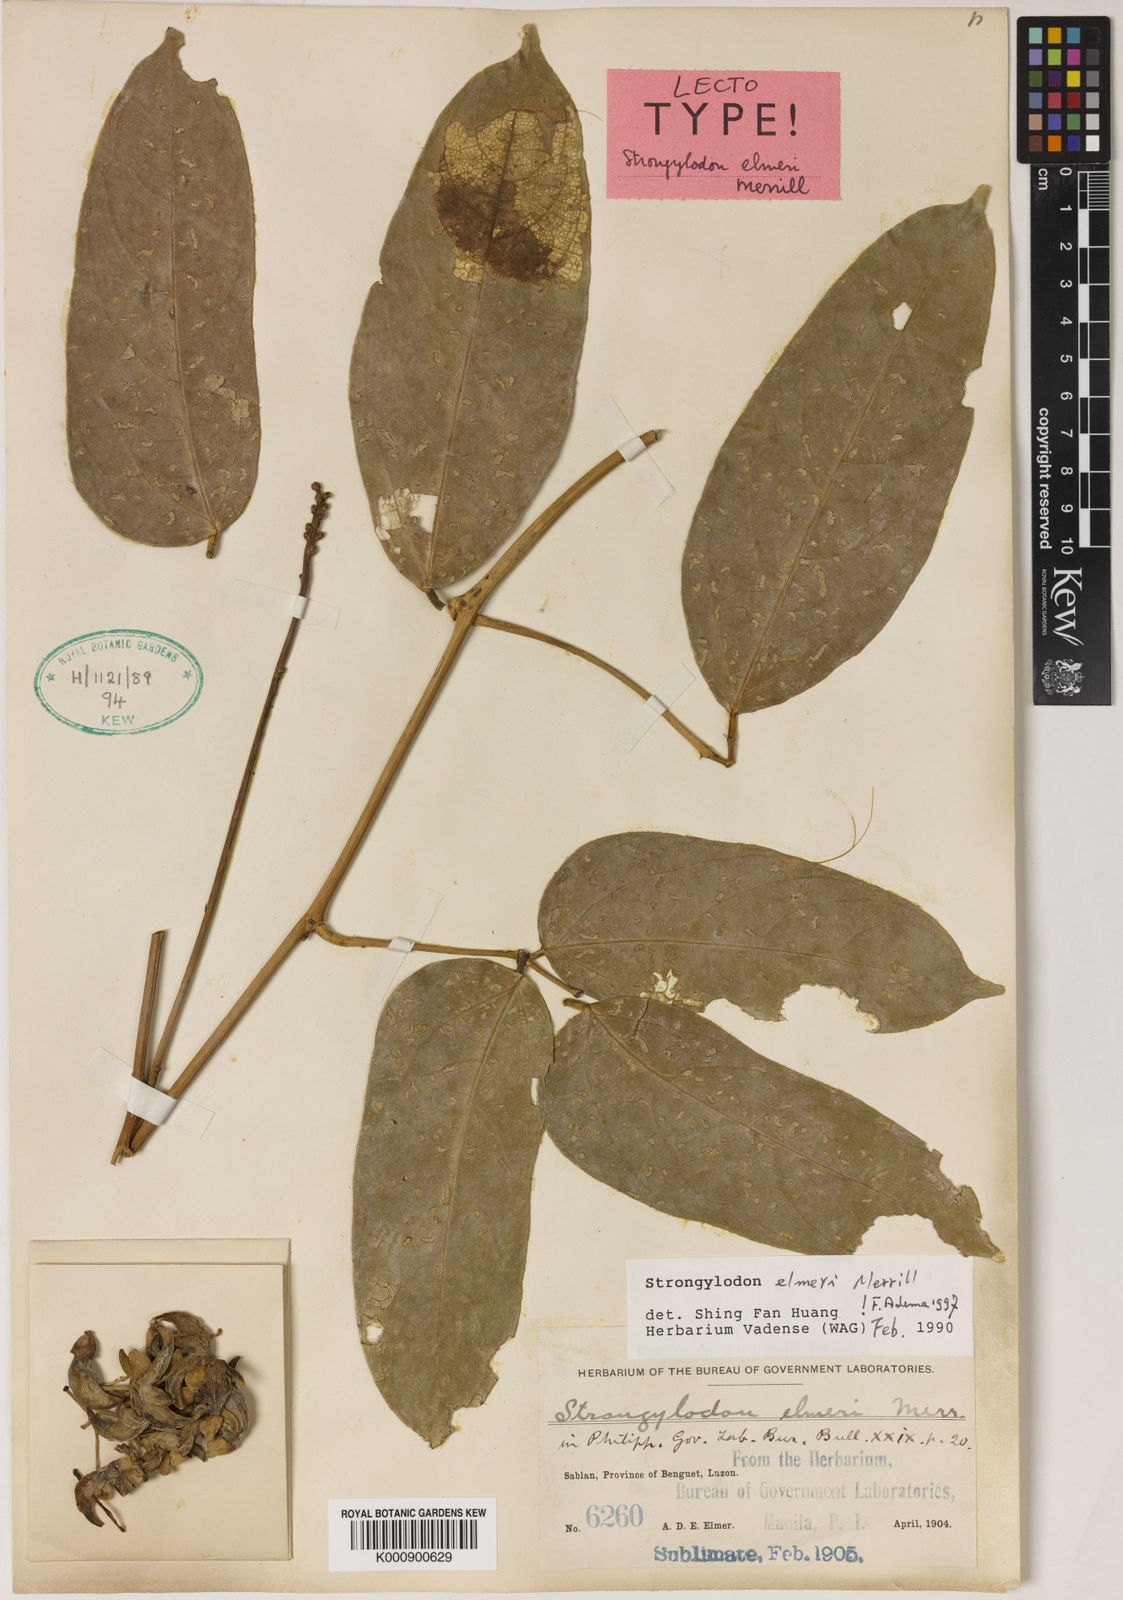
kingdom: Plantae
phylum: Tracheophyta
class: Magnoliopsida
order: Fabales
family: Fabaceae
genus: Strongylodon
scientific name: Strongylodon elmeri
